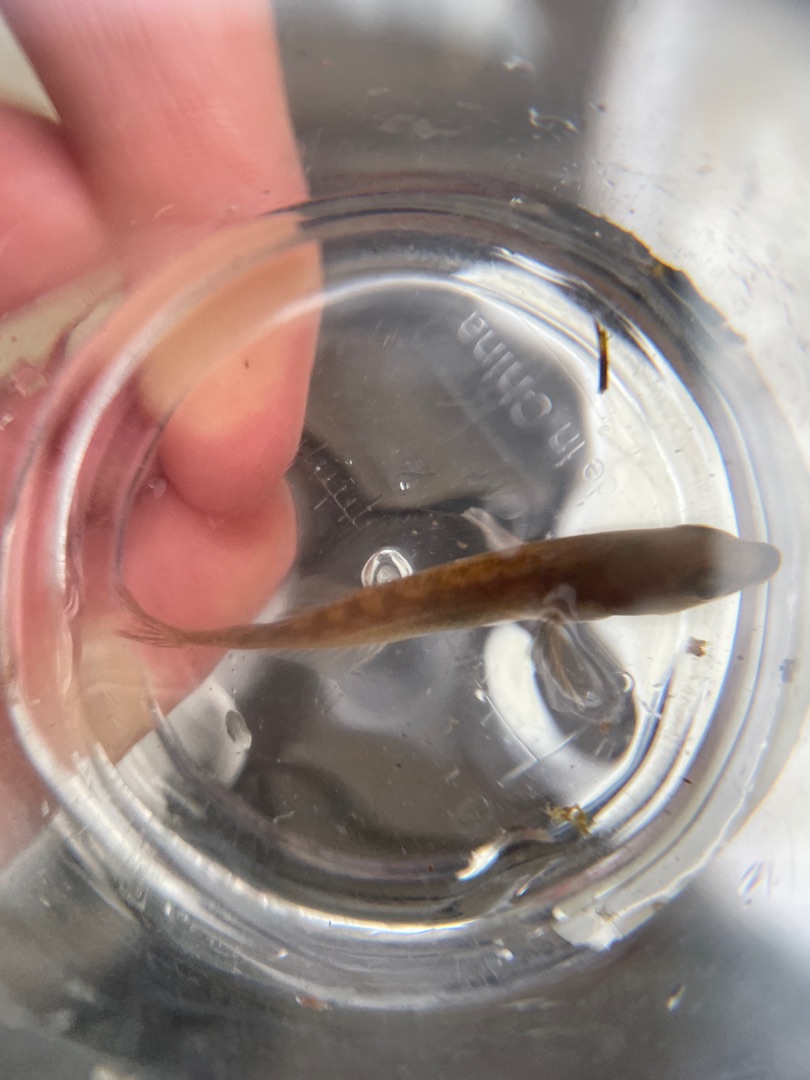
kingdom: Animalia
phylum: Chordata
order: Gasterosteiformes
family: Gasterosteidae
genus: Pungitius
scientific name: Pungitius pungitius
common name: Nipigget hundestejle
